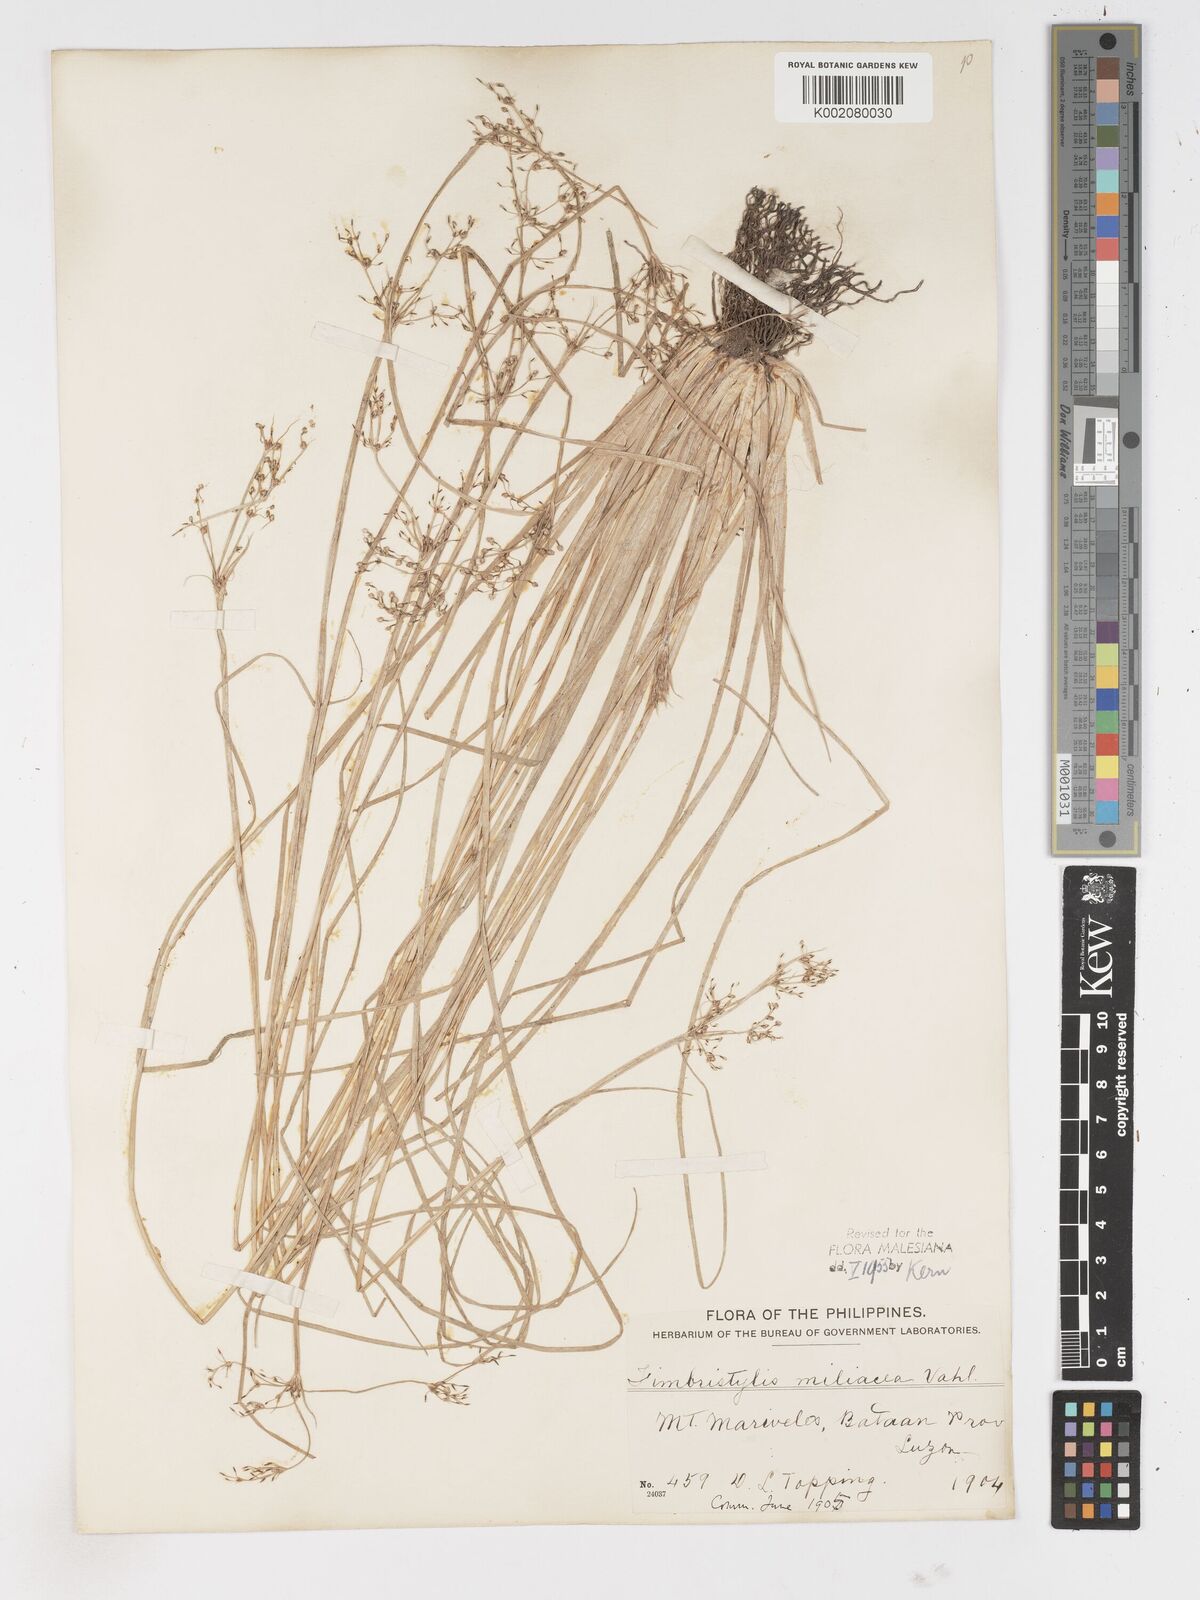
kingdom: Plantae
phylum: Tracheophyta
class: Liliopsida
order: Poales
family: Cyperaceae
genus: Fimbristylis
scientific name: Fimbristylis littoralis
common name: Fimbry
